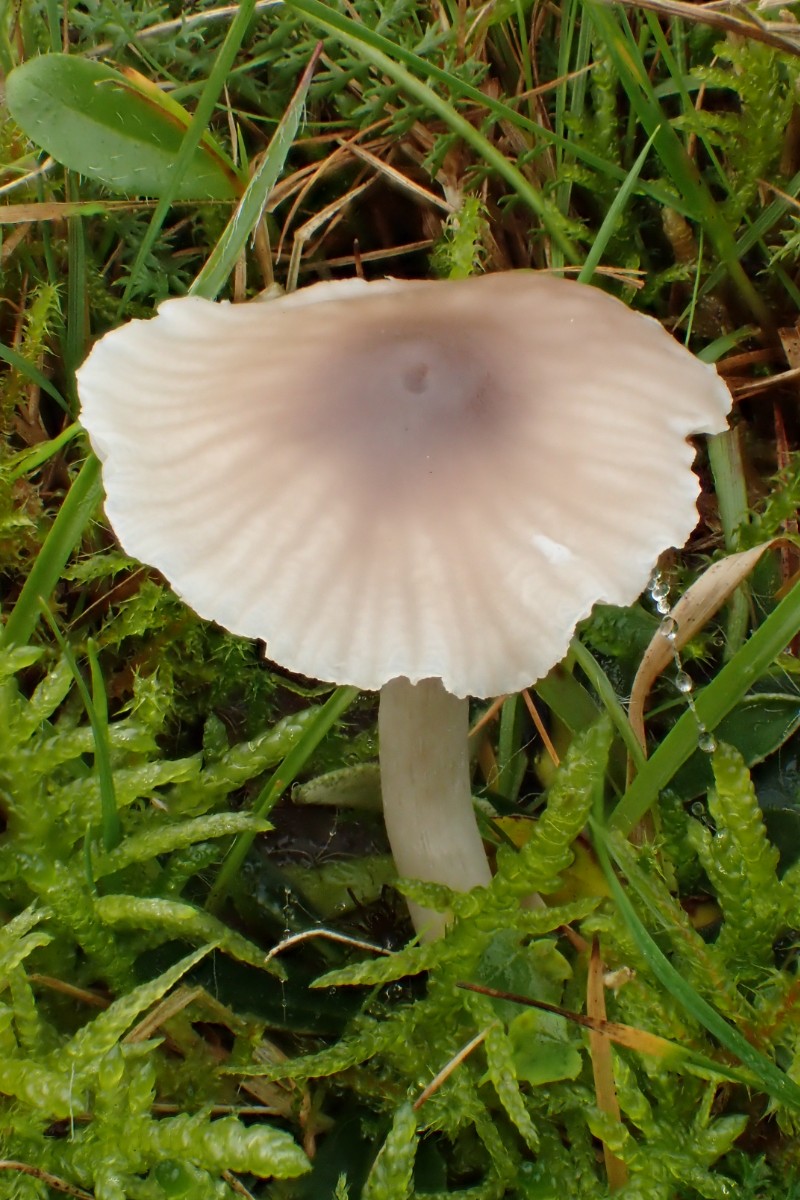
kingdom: Fungi
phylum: Basidiomycota
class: Agaricomycetes
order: Agaricales
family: Hygrophoraceae
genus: Cuphophyllus
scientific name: Cuphophyllus flavipes
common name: gulfodet vokshat
